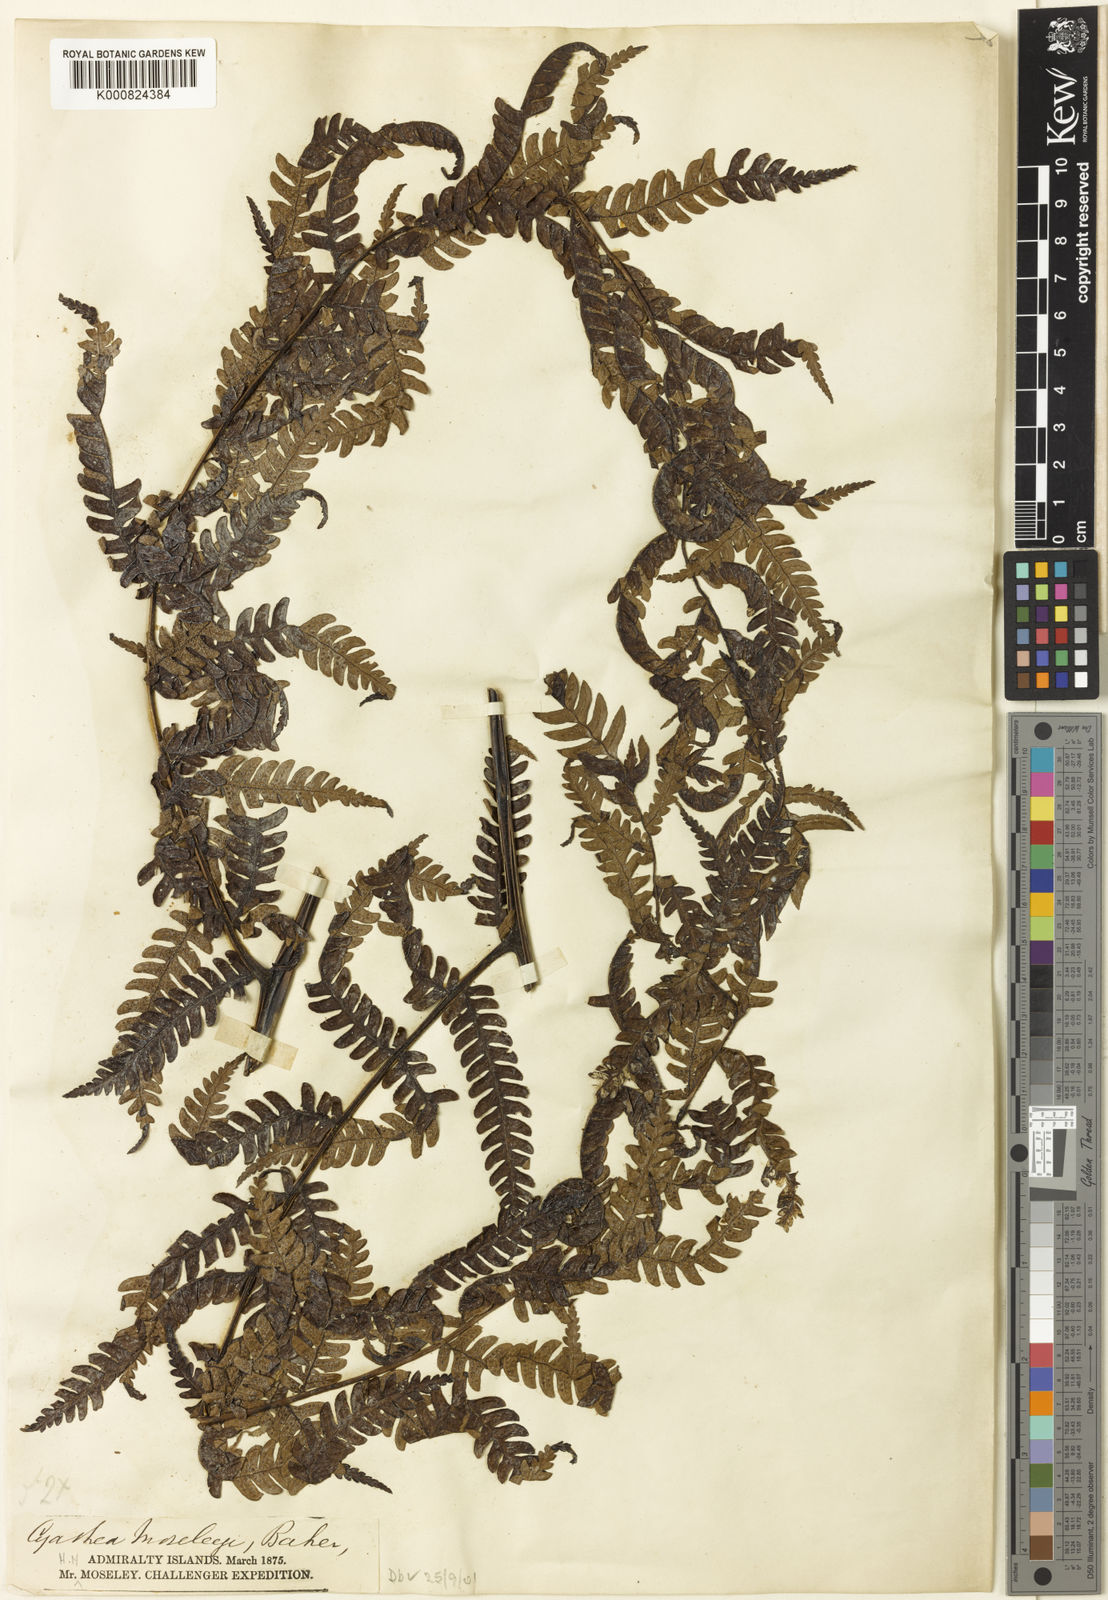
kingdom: Plantae
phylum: Tracheophyta
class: Polypodiopsida
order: Cyatheales
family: Cyatheaceae
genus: Sphaeropteris
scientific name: Sphaeropteris moseleyi
